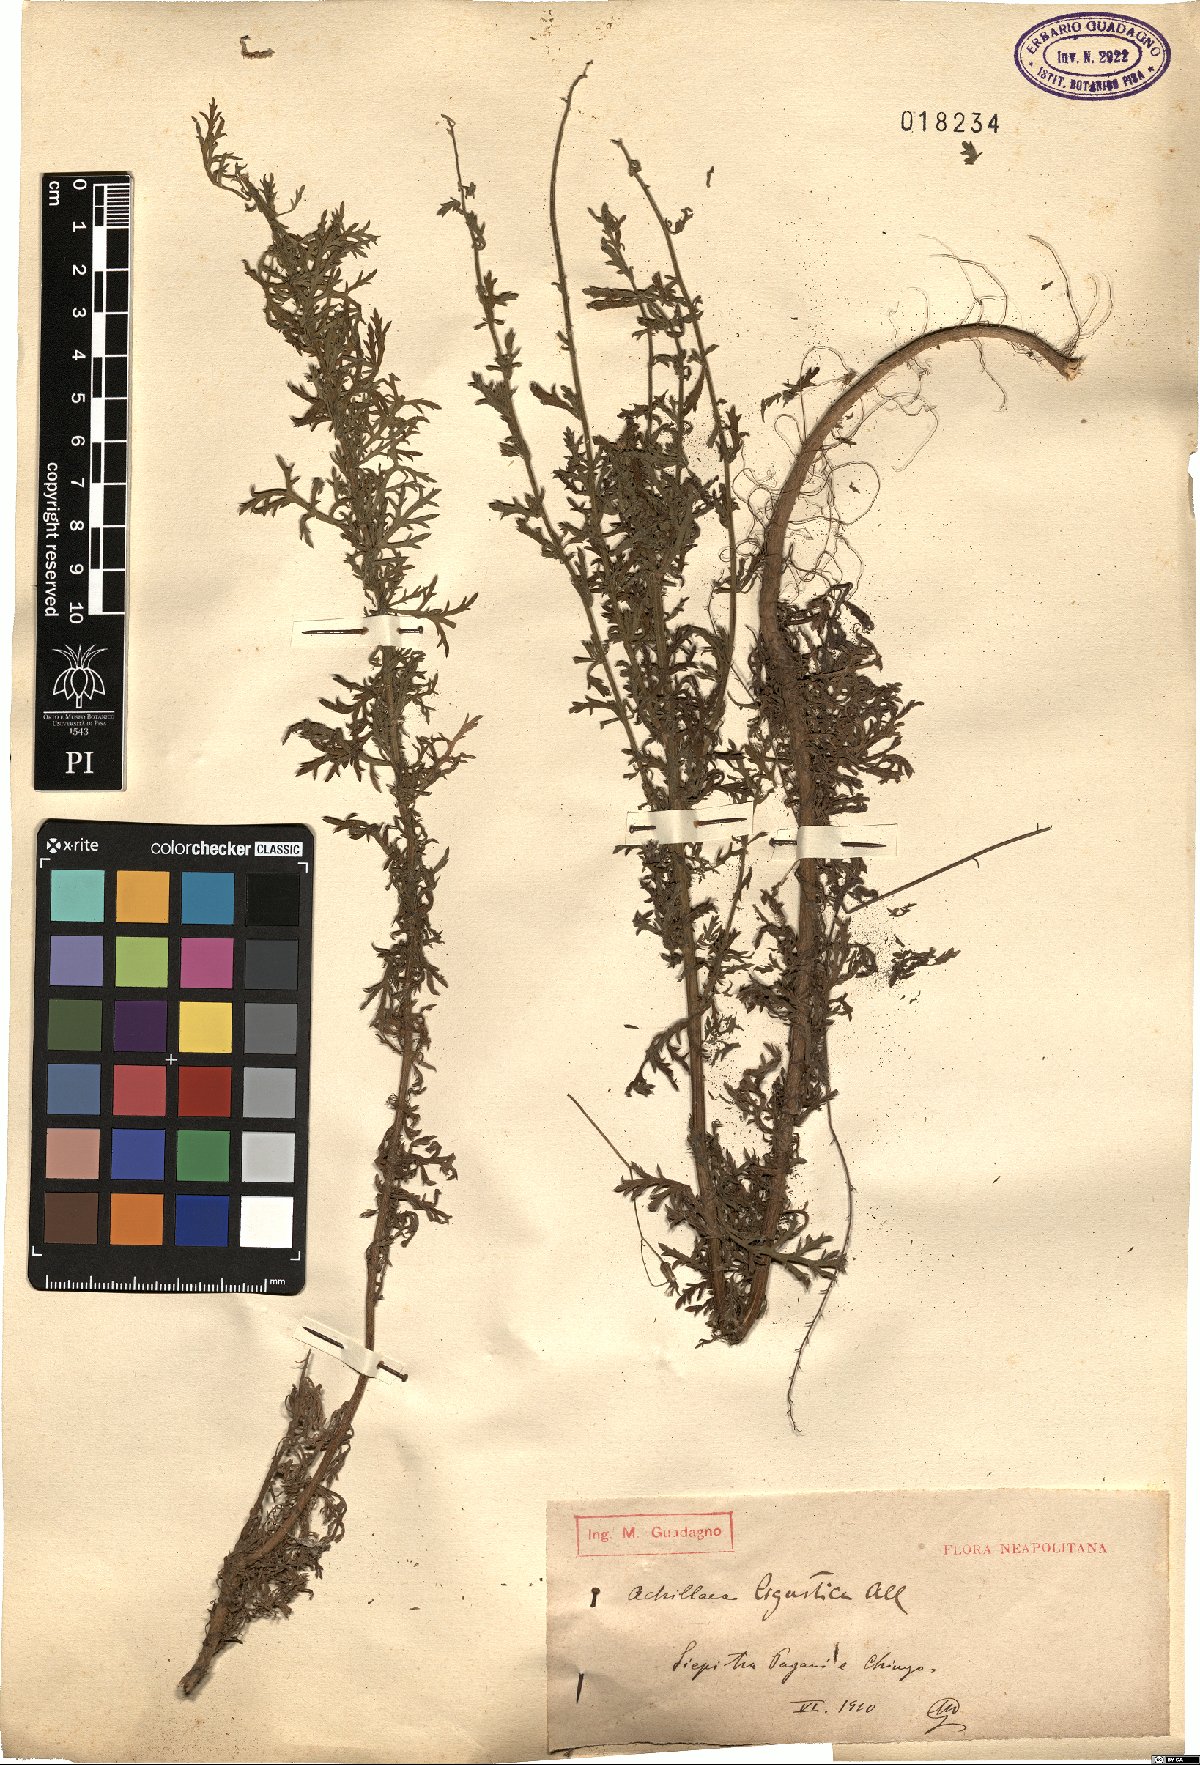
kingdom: Plantae
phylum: Tracheophyta
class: Magnoliopsida
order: Asterales
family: Asteraceae
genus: Achillea
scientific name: Achillea ligustica
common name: Southern yarrow
